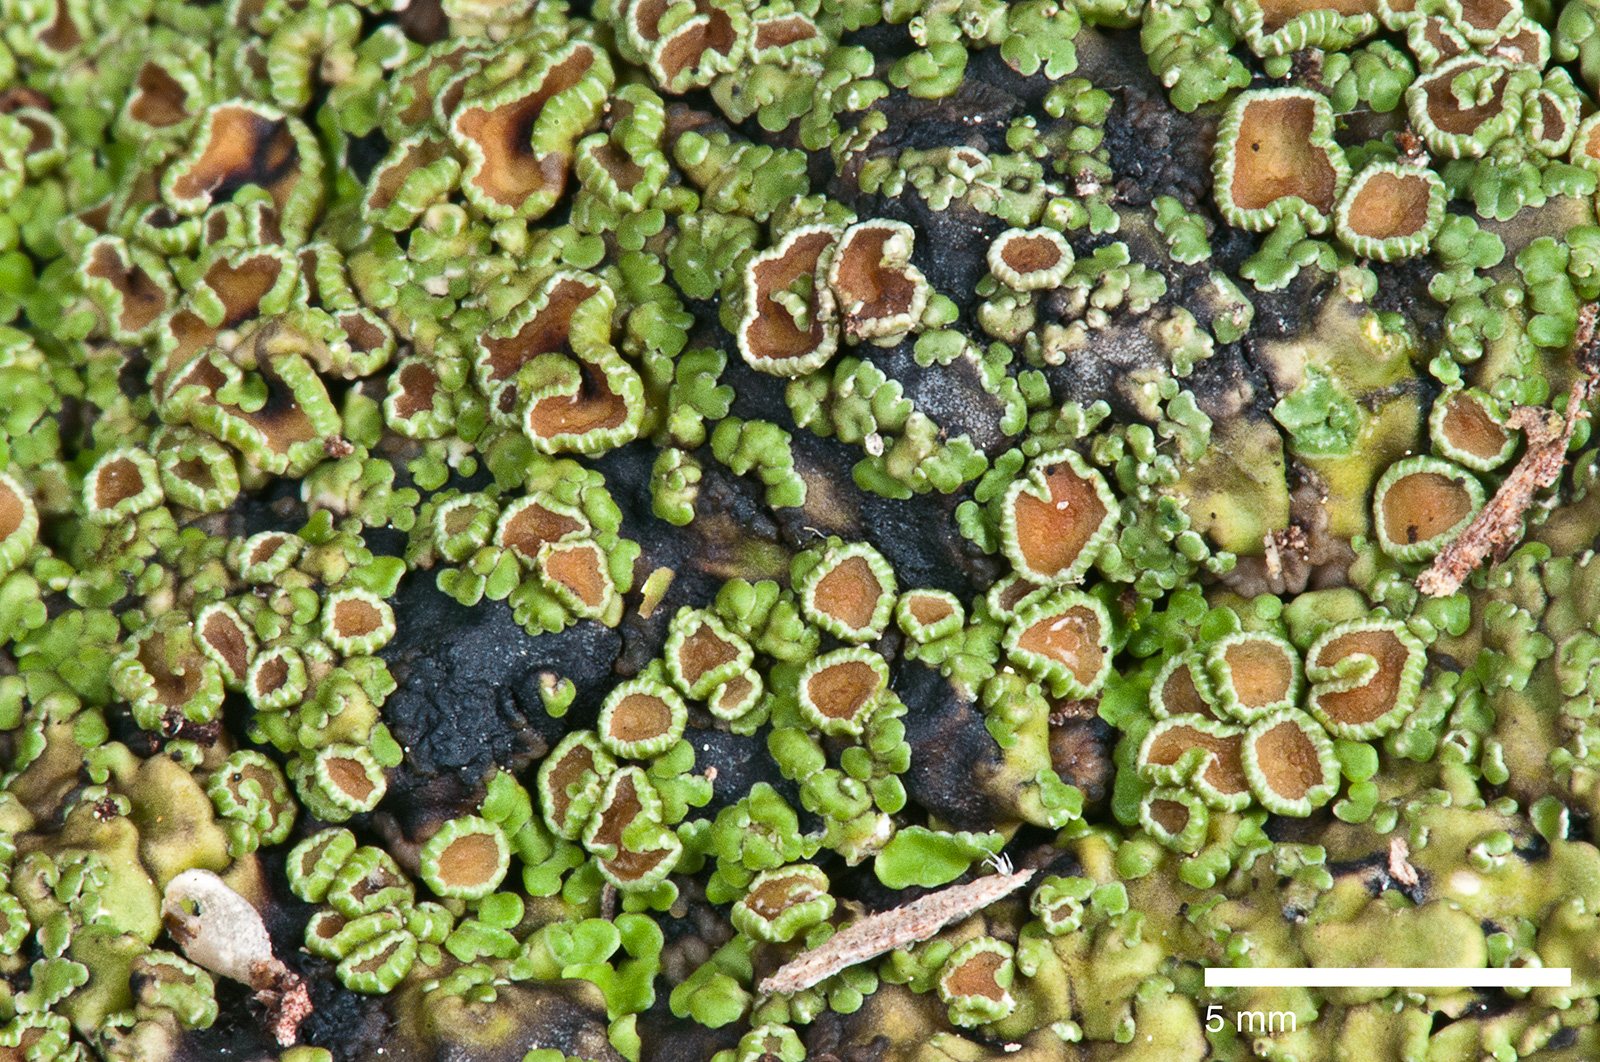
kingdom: Fungi
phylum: Ascomycota
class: Lecanoromycetes
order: Peltigerales
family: Pannariaceae
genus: Psoroma
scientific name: Psoroma sphinctrinum
